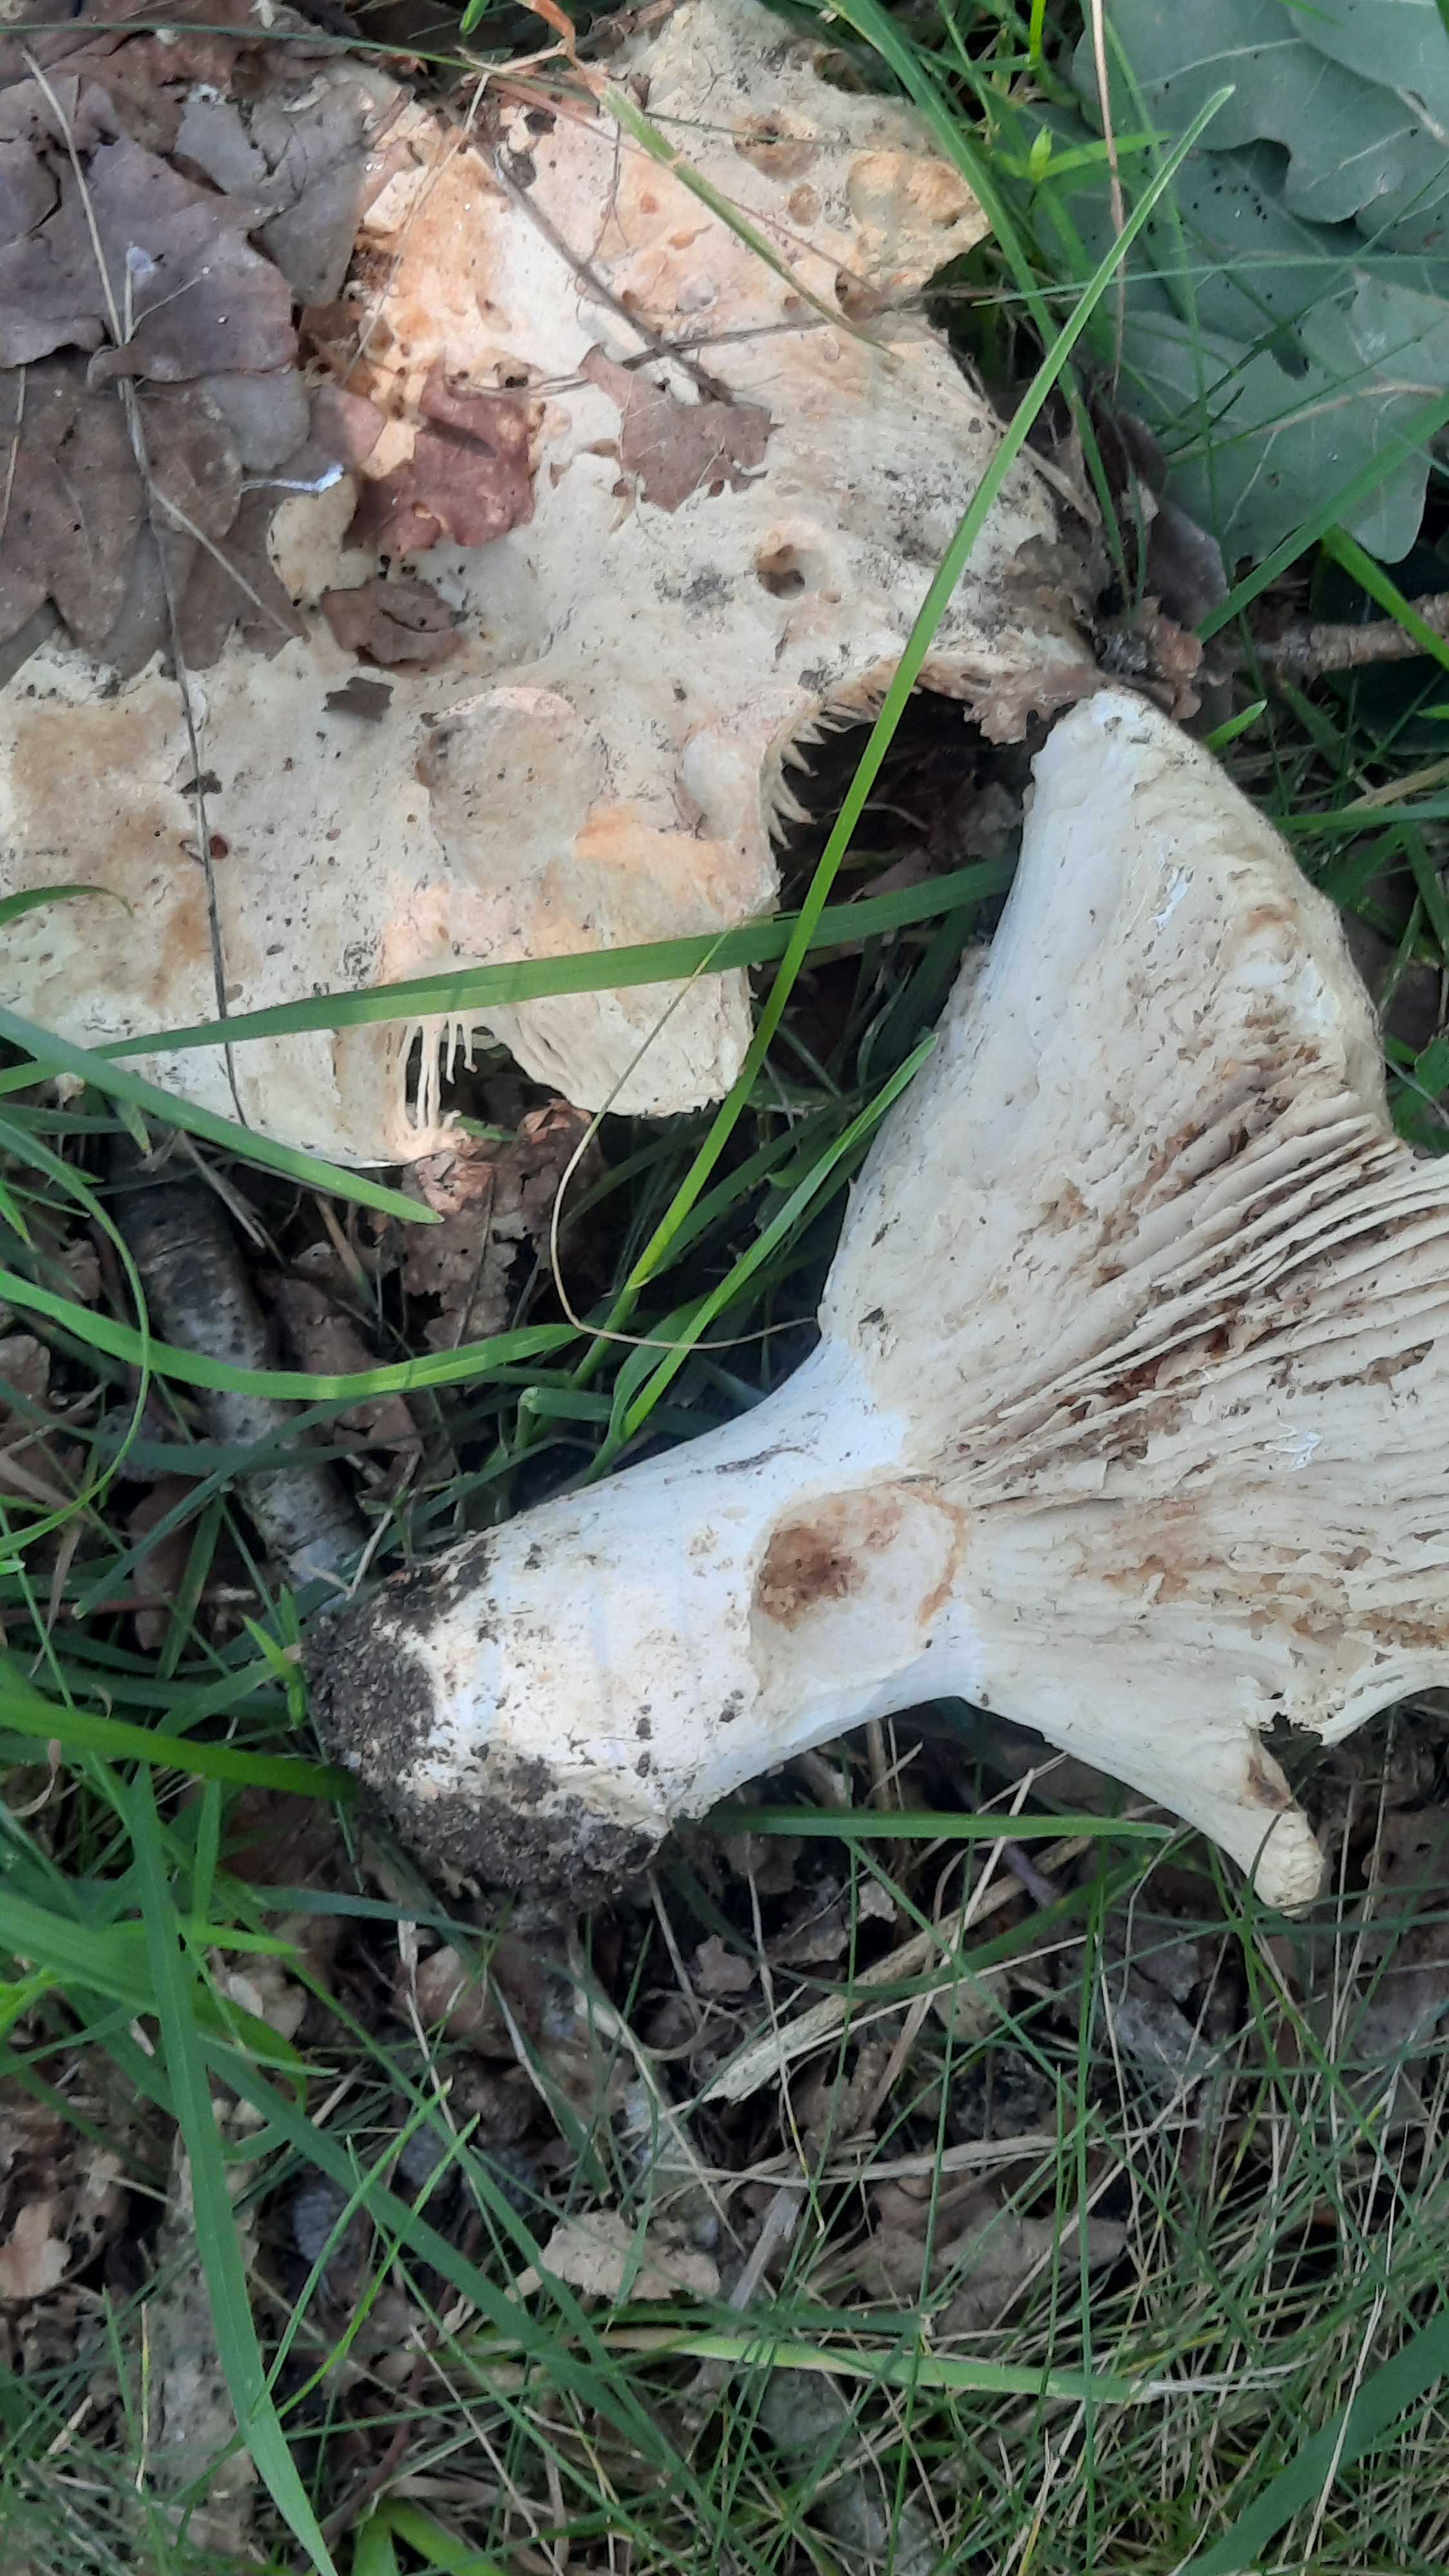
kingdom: Fungi
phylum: Basidiomycota
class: Agaricomycetes
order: Russulales
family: Russulaceae
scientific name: Russulaceae
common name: skørhatfamilien
